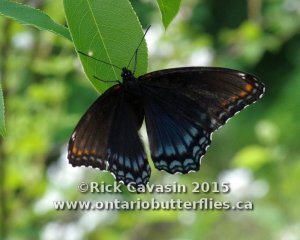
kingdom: Animalia
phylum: Arthropoda
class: Insecta
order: Lepidoptera
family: Nymphalidae
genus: Limenitis
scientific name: Limenitis astyanax
